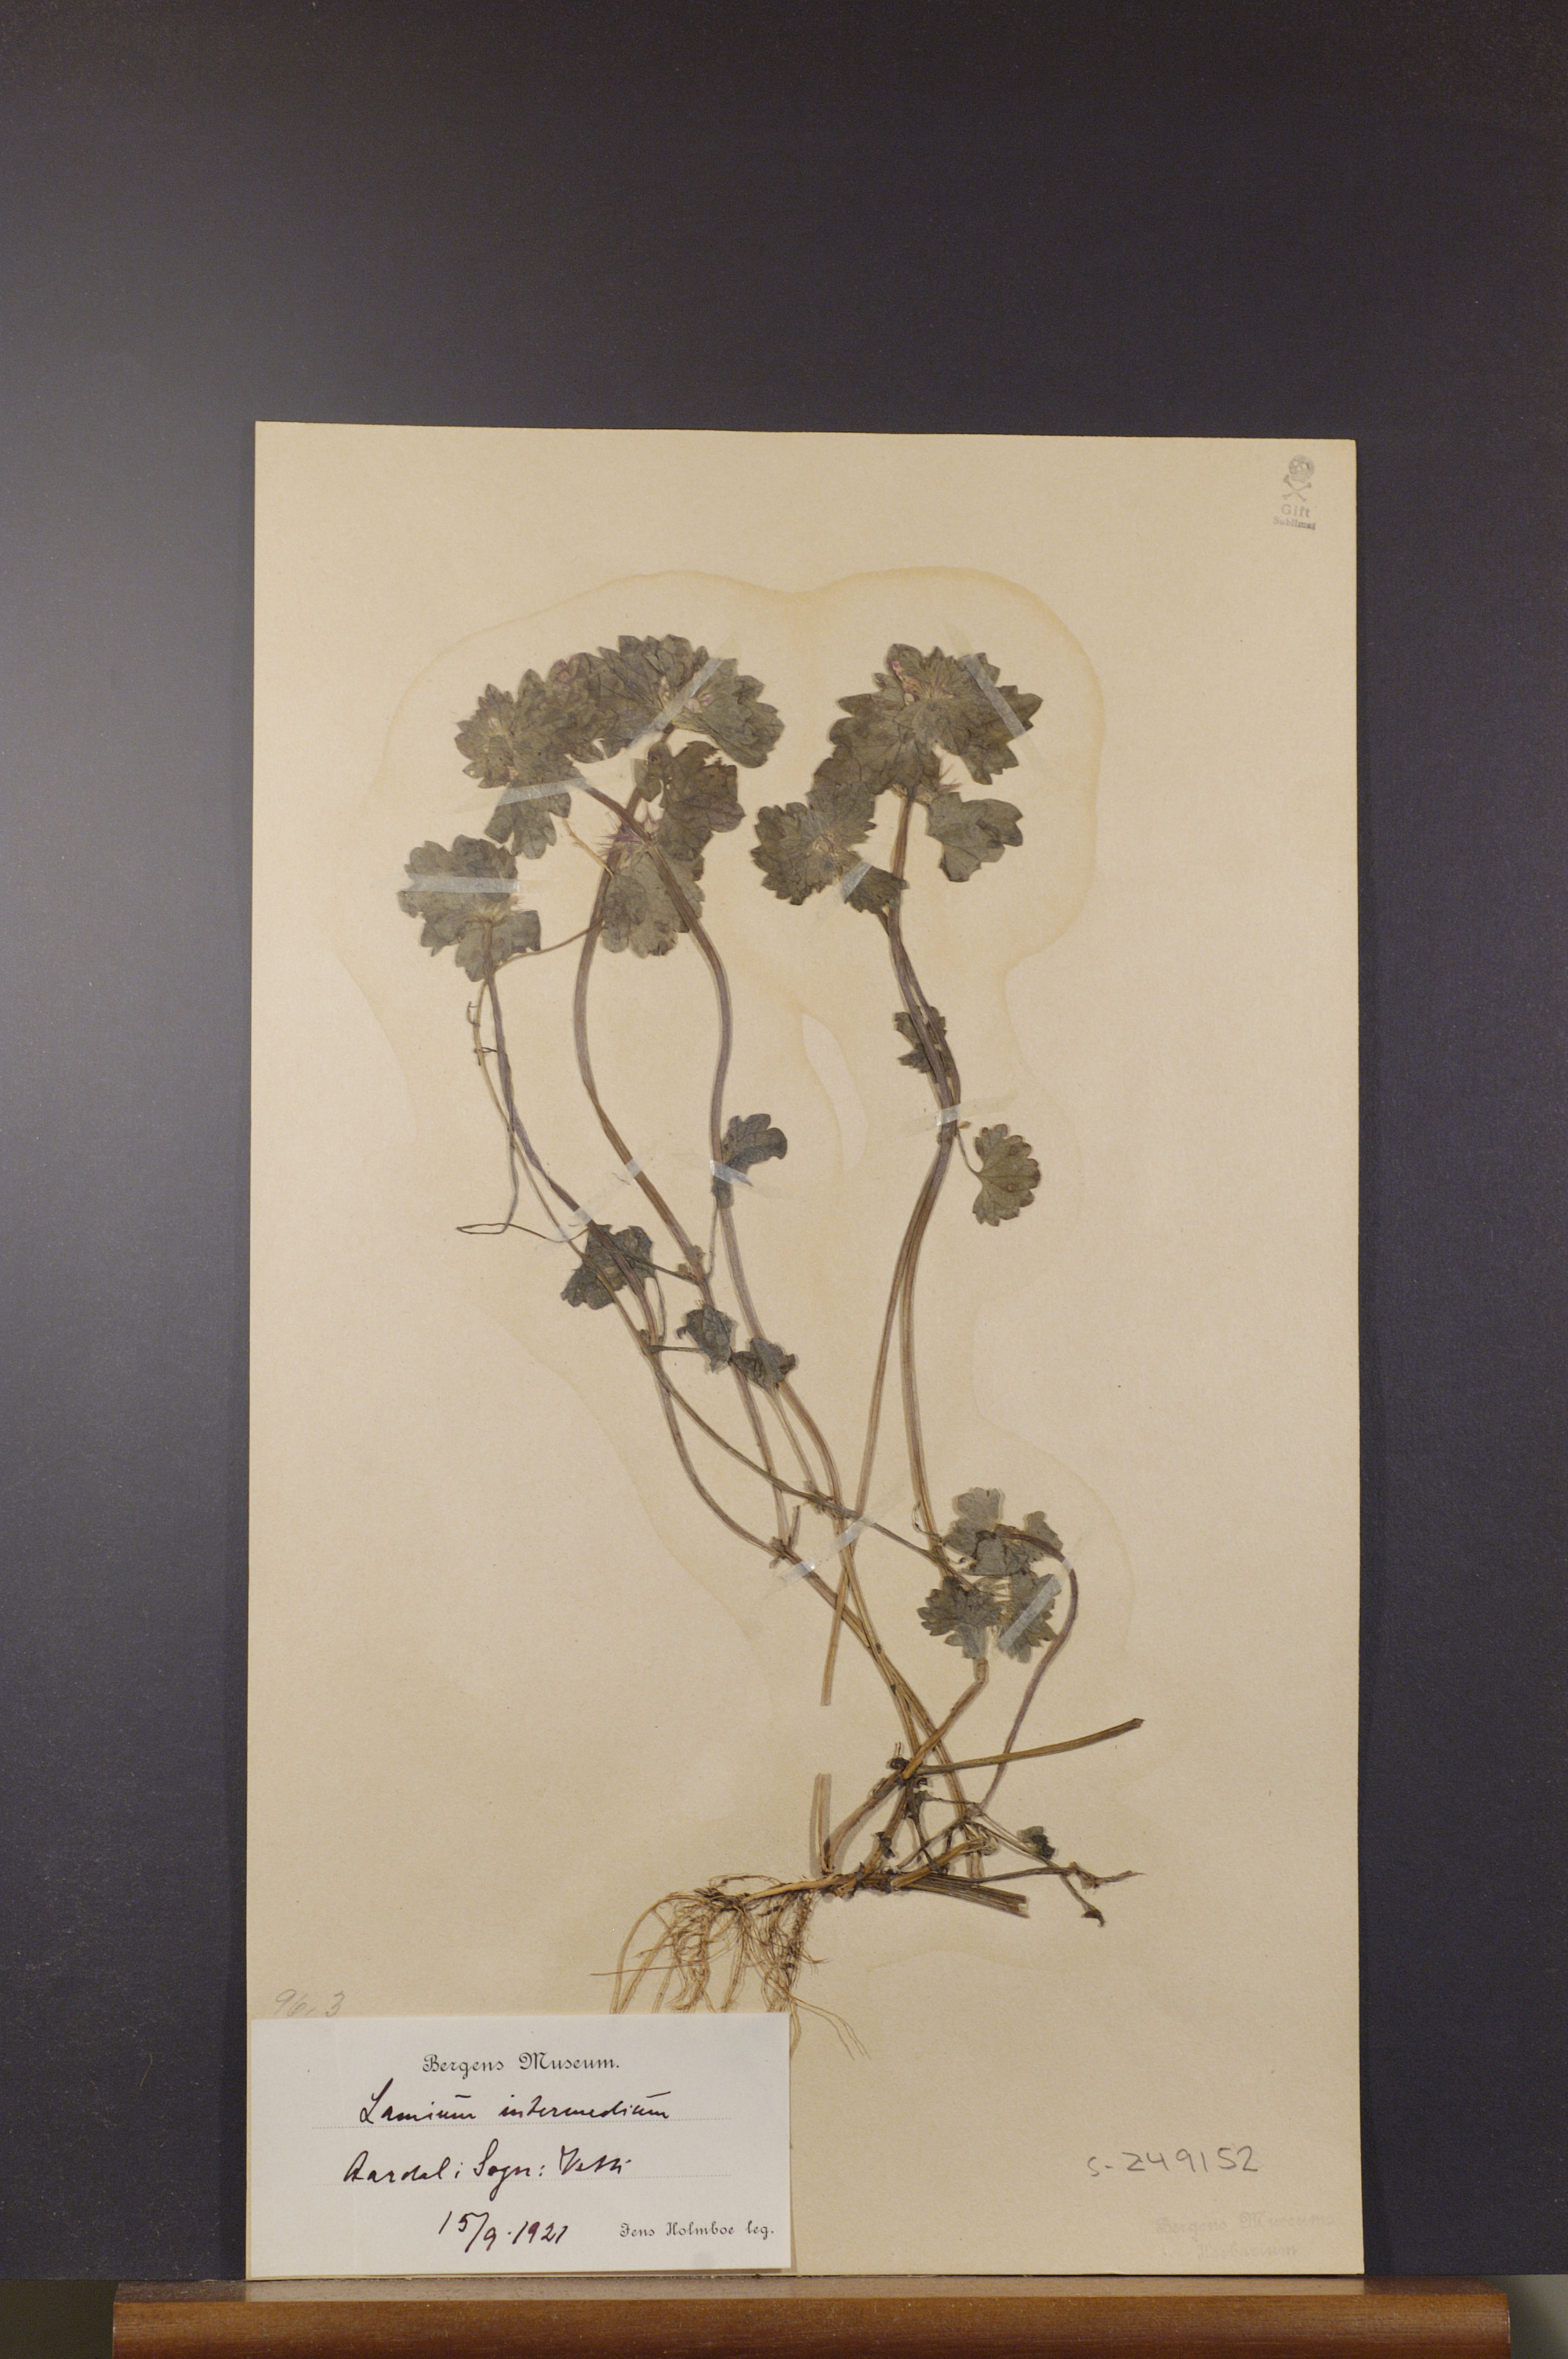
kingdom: Plantae
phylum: Tracheophyta
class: Magnoliopsida
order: Lamiales
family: Lamiaceae
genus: Lamium
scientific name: Lamium confertum
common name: Northern dead-nettle
